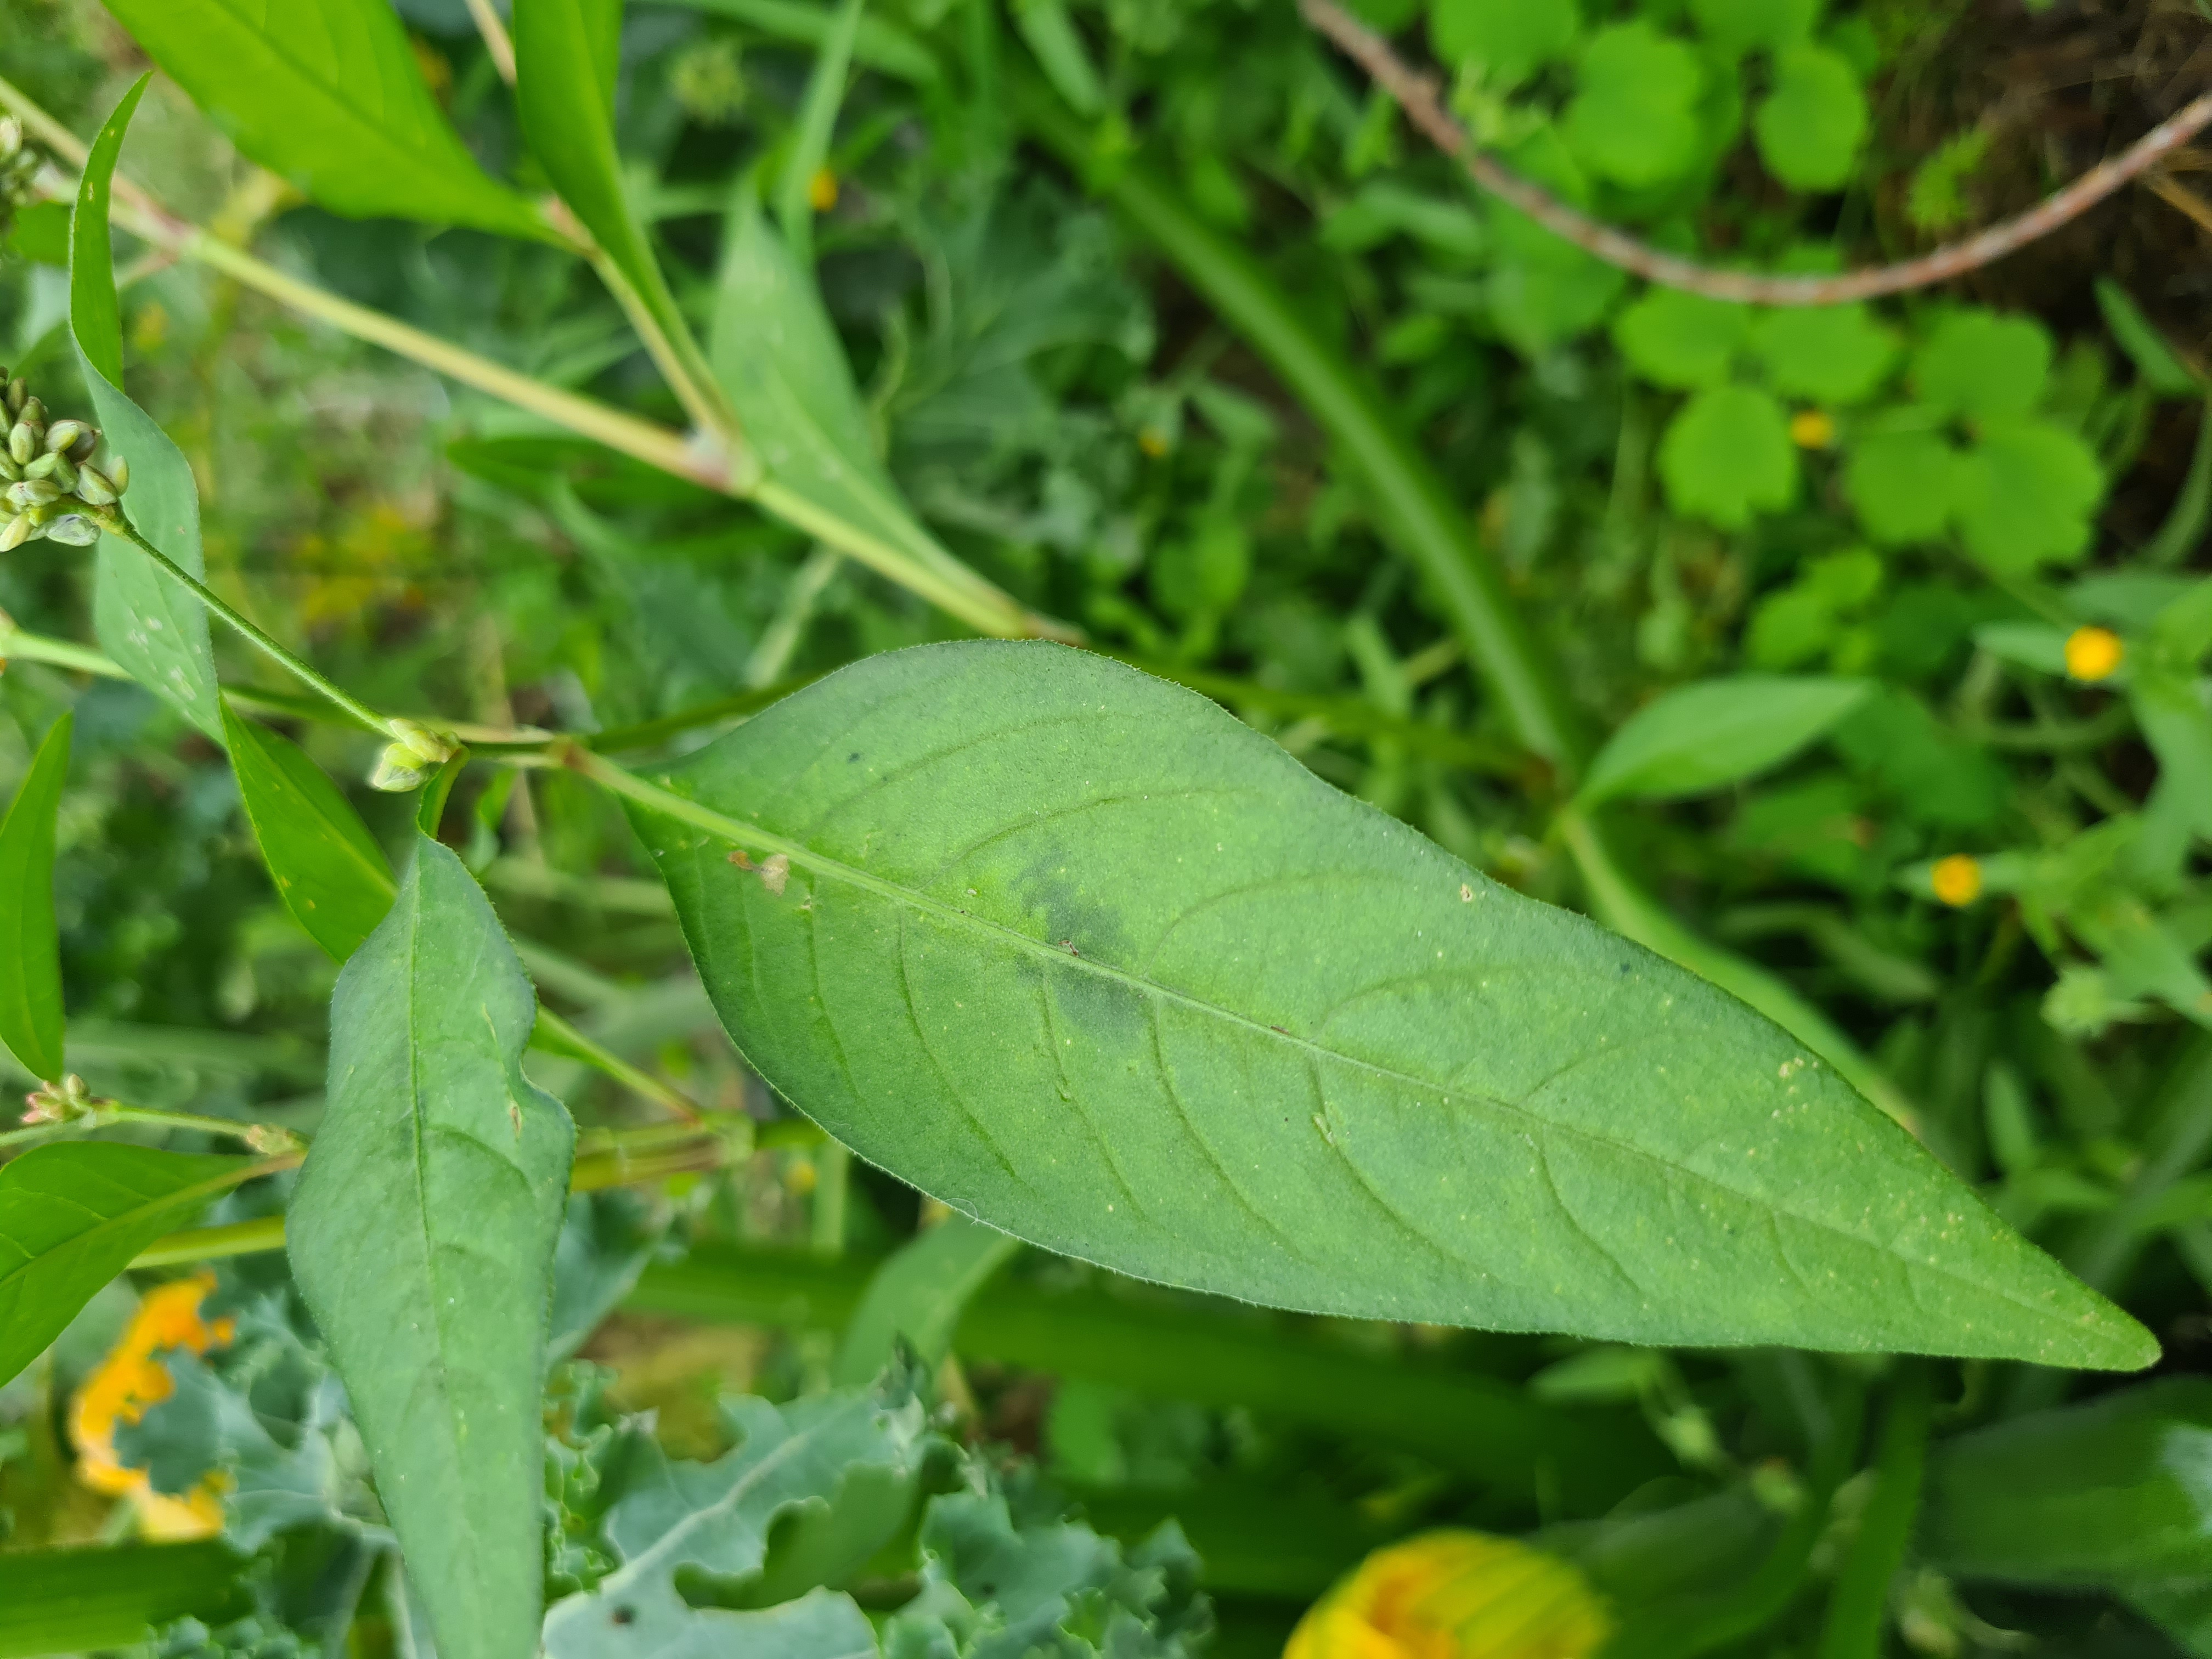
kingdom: Plantae
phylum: Tracheophyta
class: Magnoliopsida
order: Caryophyllales
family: Polygonaceae
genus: Persicaria
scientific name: Persicaria lapathifolia
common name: Bleg pileurt
